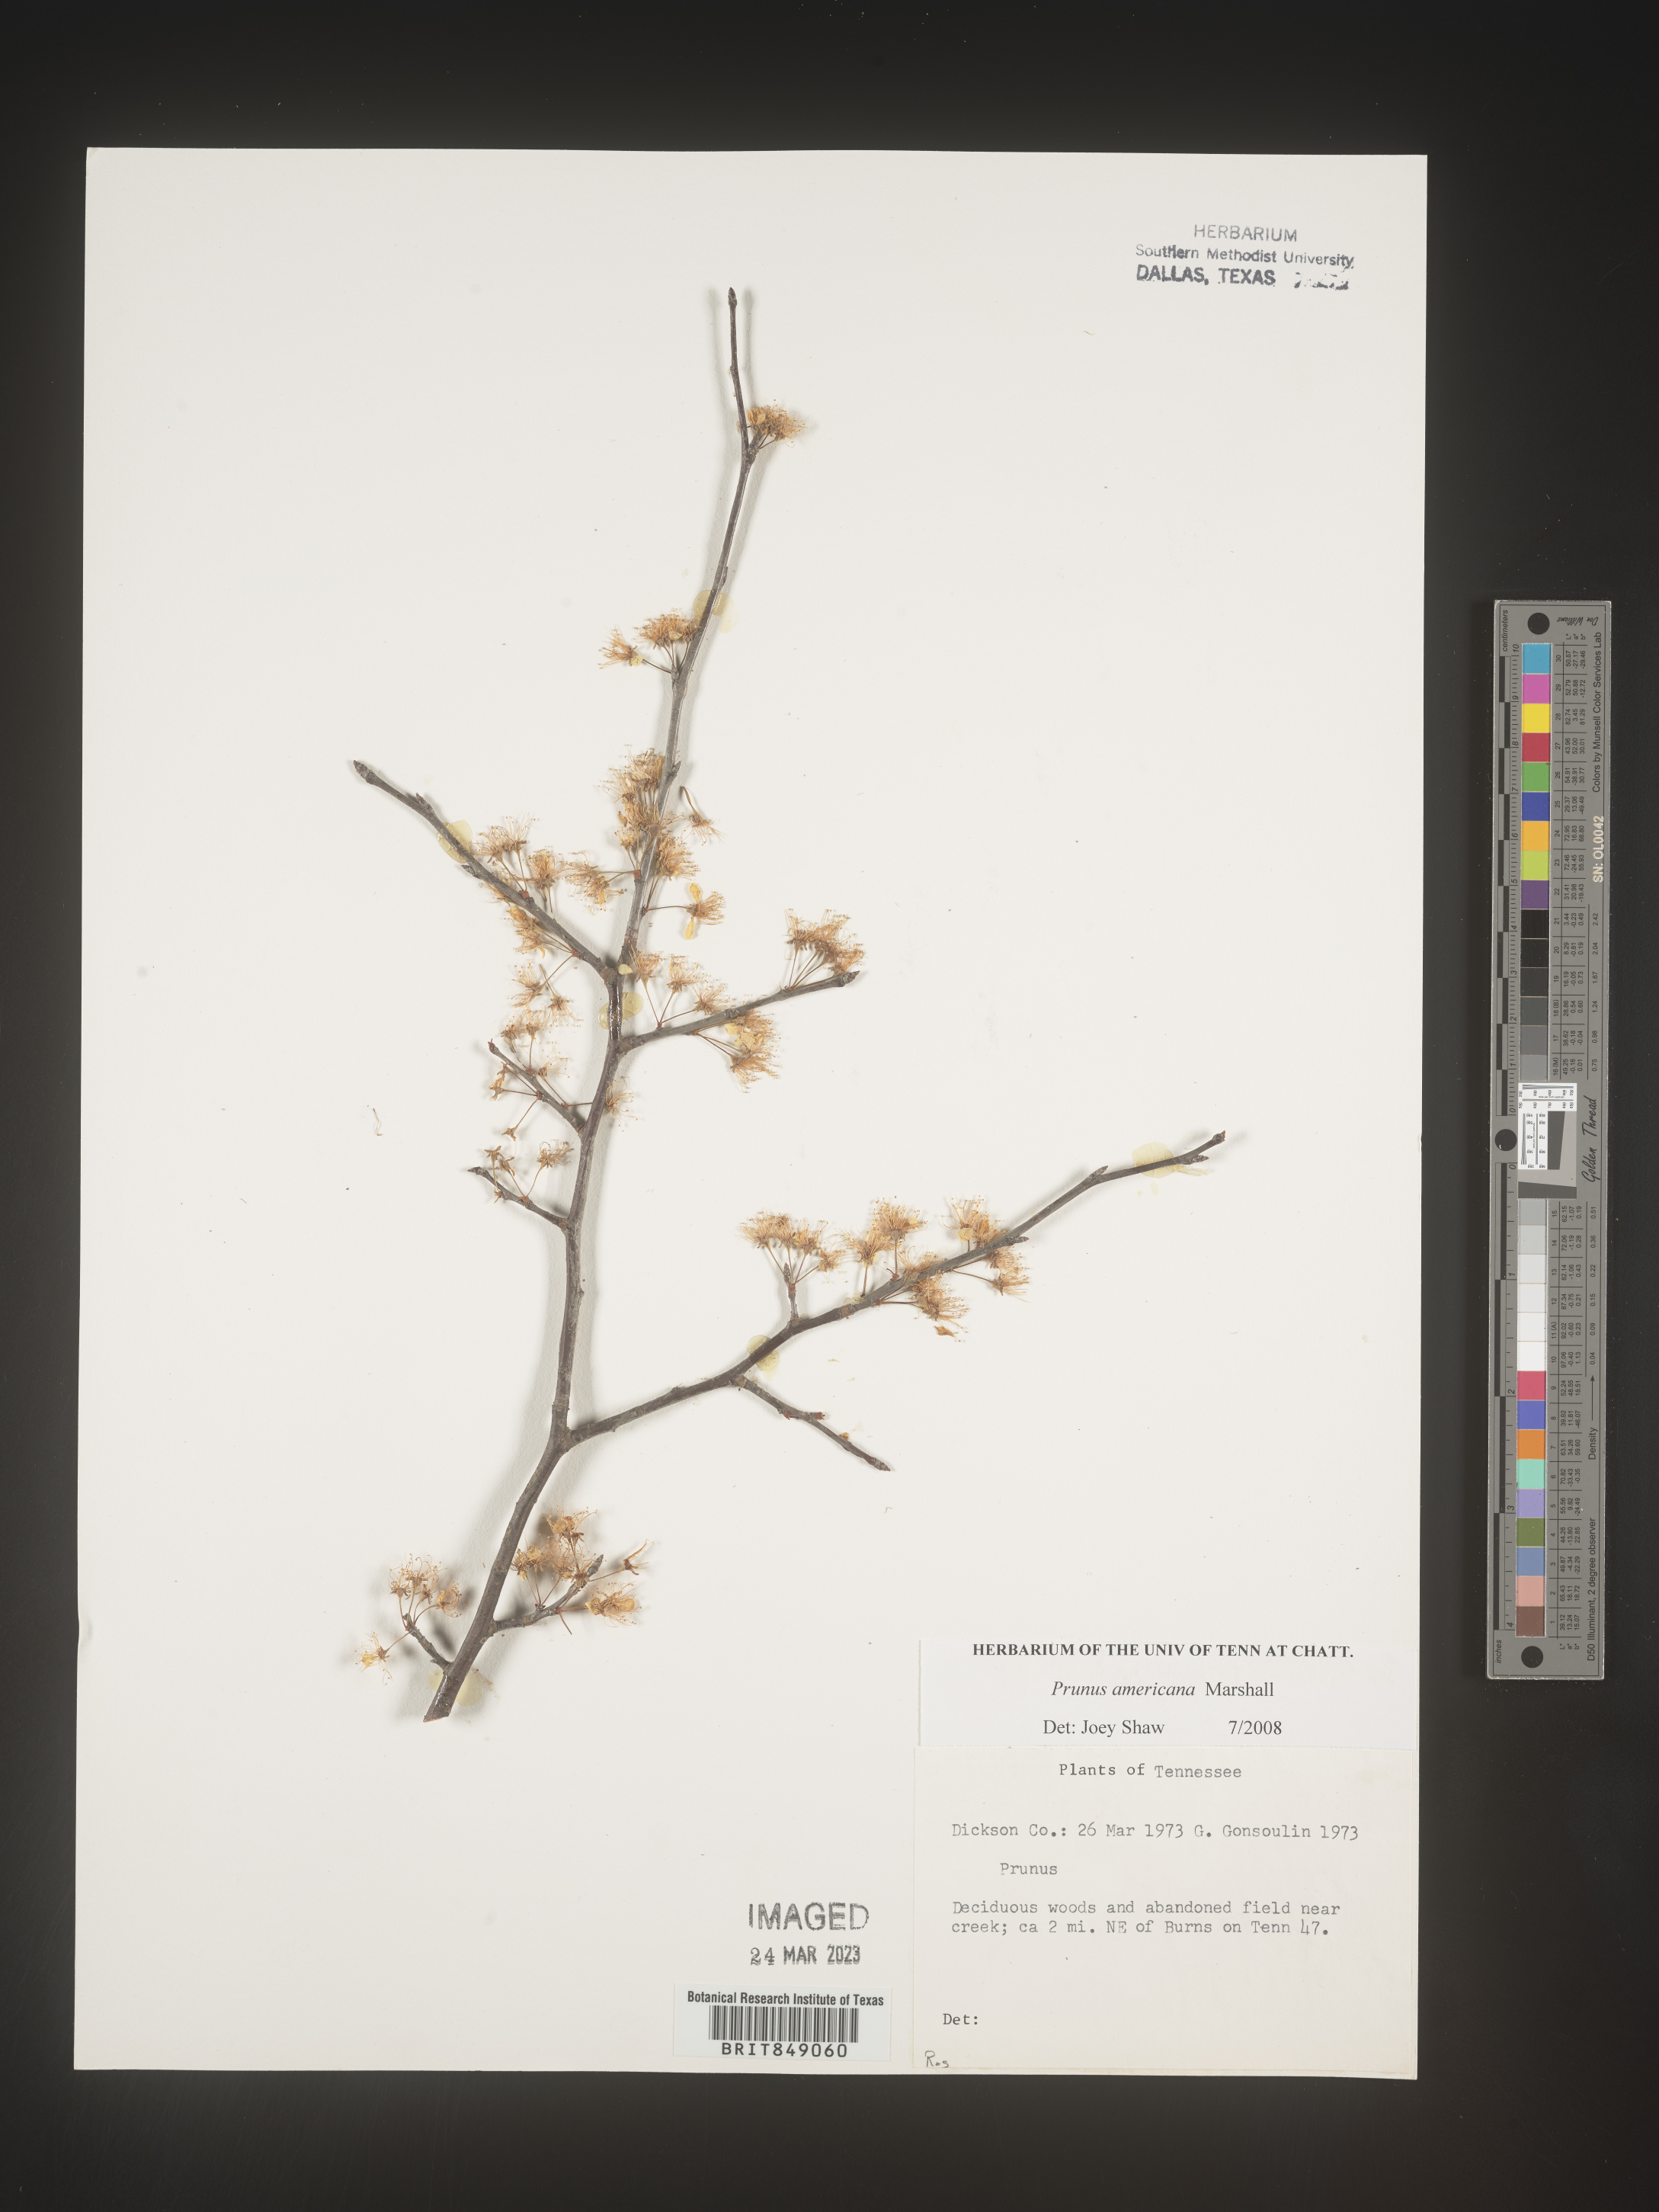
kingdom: Plantae
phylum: Tracheophyta
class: Magnoliopsida
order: Rosales
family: Rosaceae
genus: Prunus
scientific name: Prunus americana
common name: American plum
